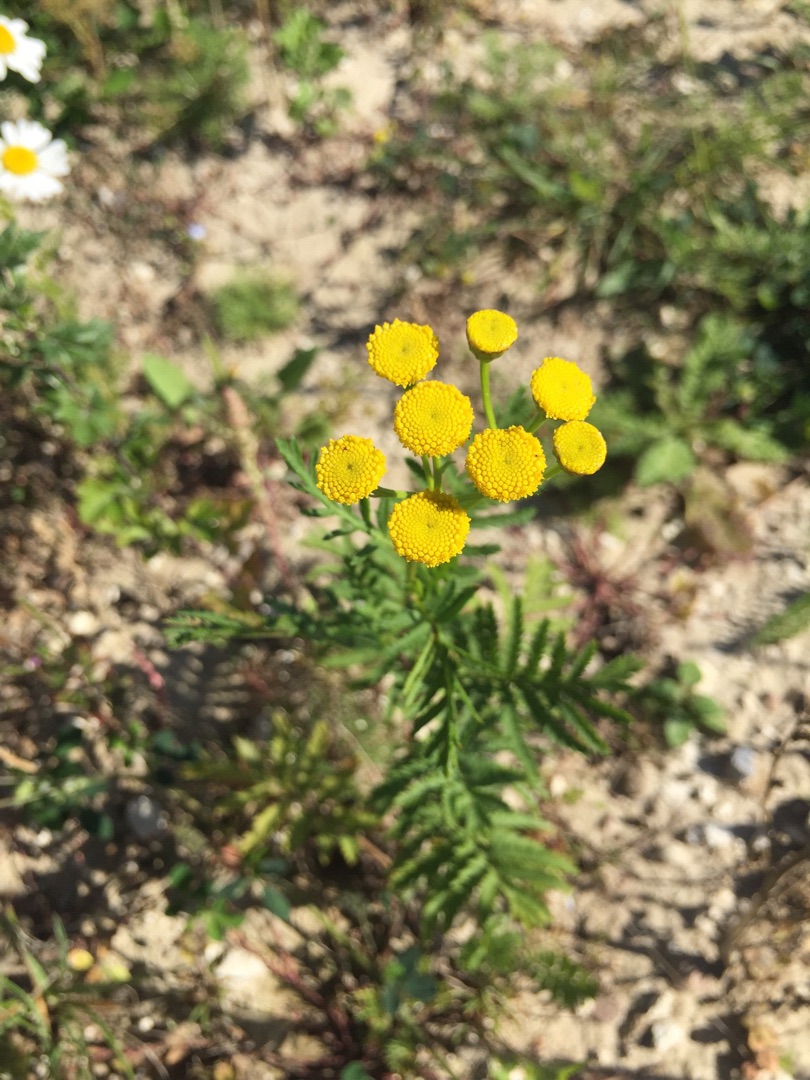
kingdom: Plantae
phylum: Tracheophyta
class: Magnoliopsida
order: Asterales
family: Asteraceae
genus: Tanacetum
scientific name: Tanacetum vulgare
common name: Rejnfan
